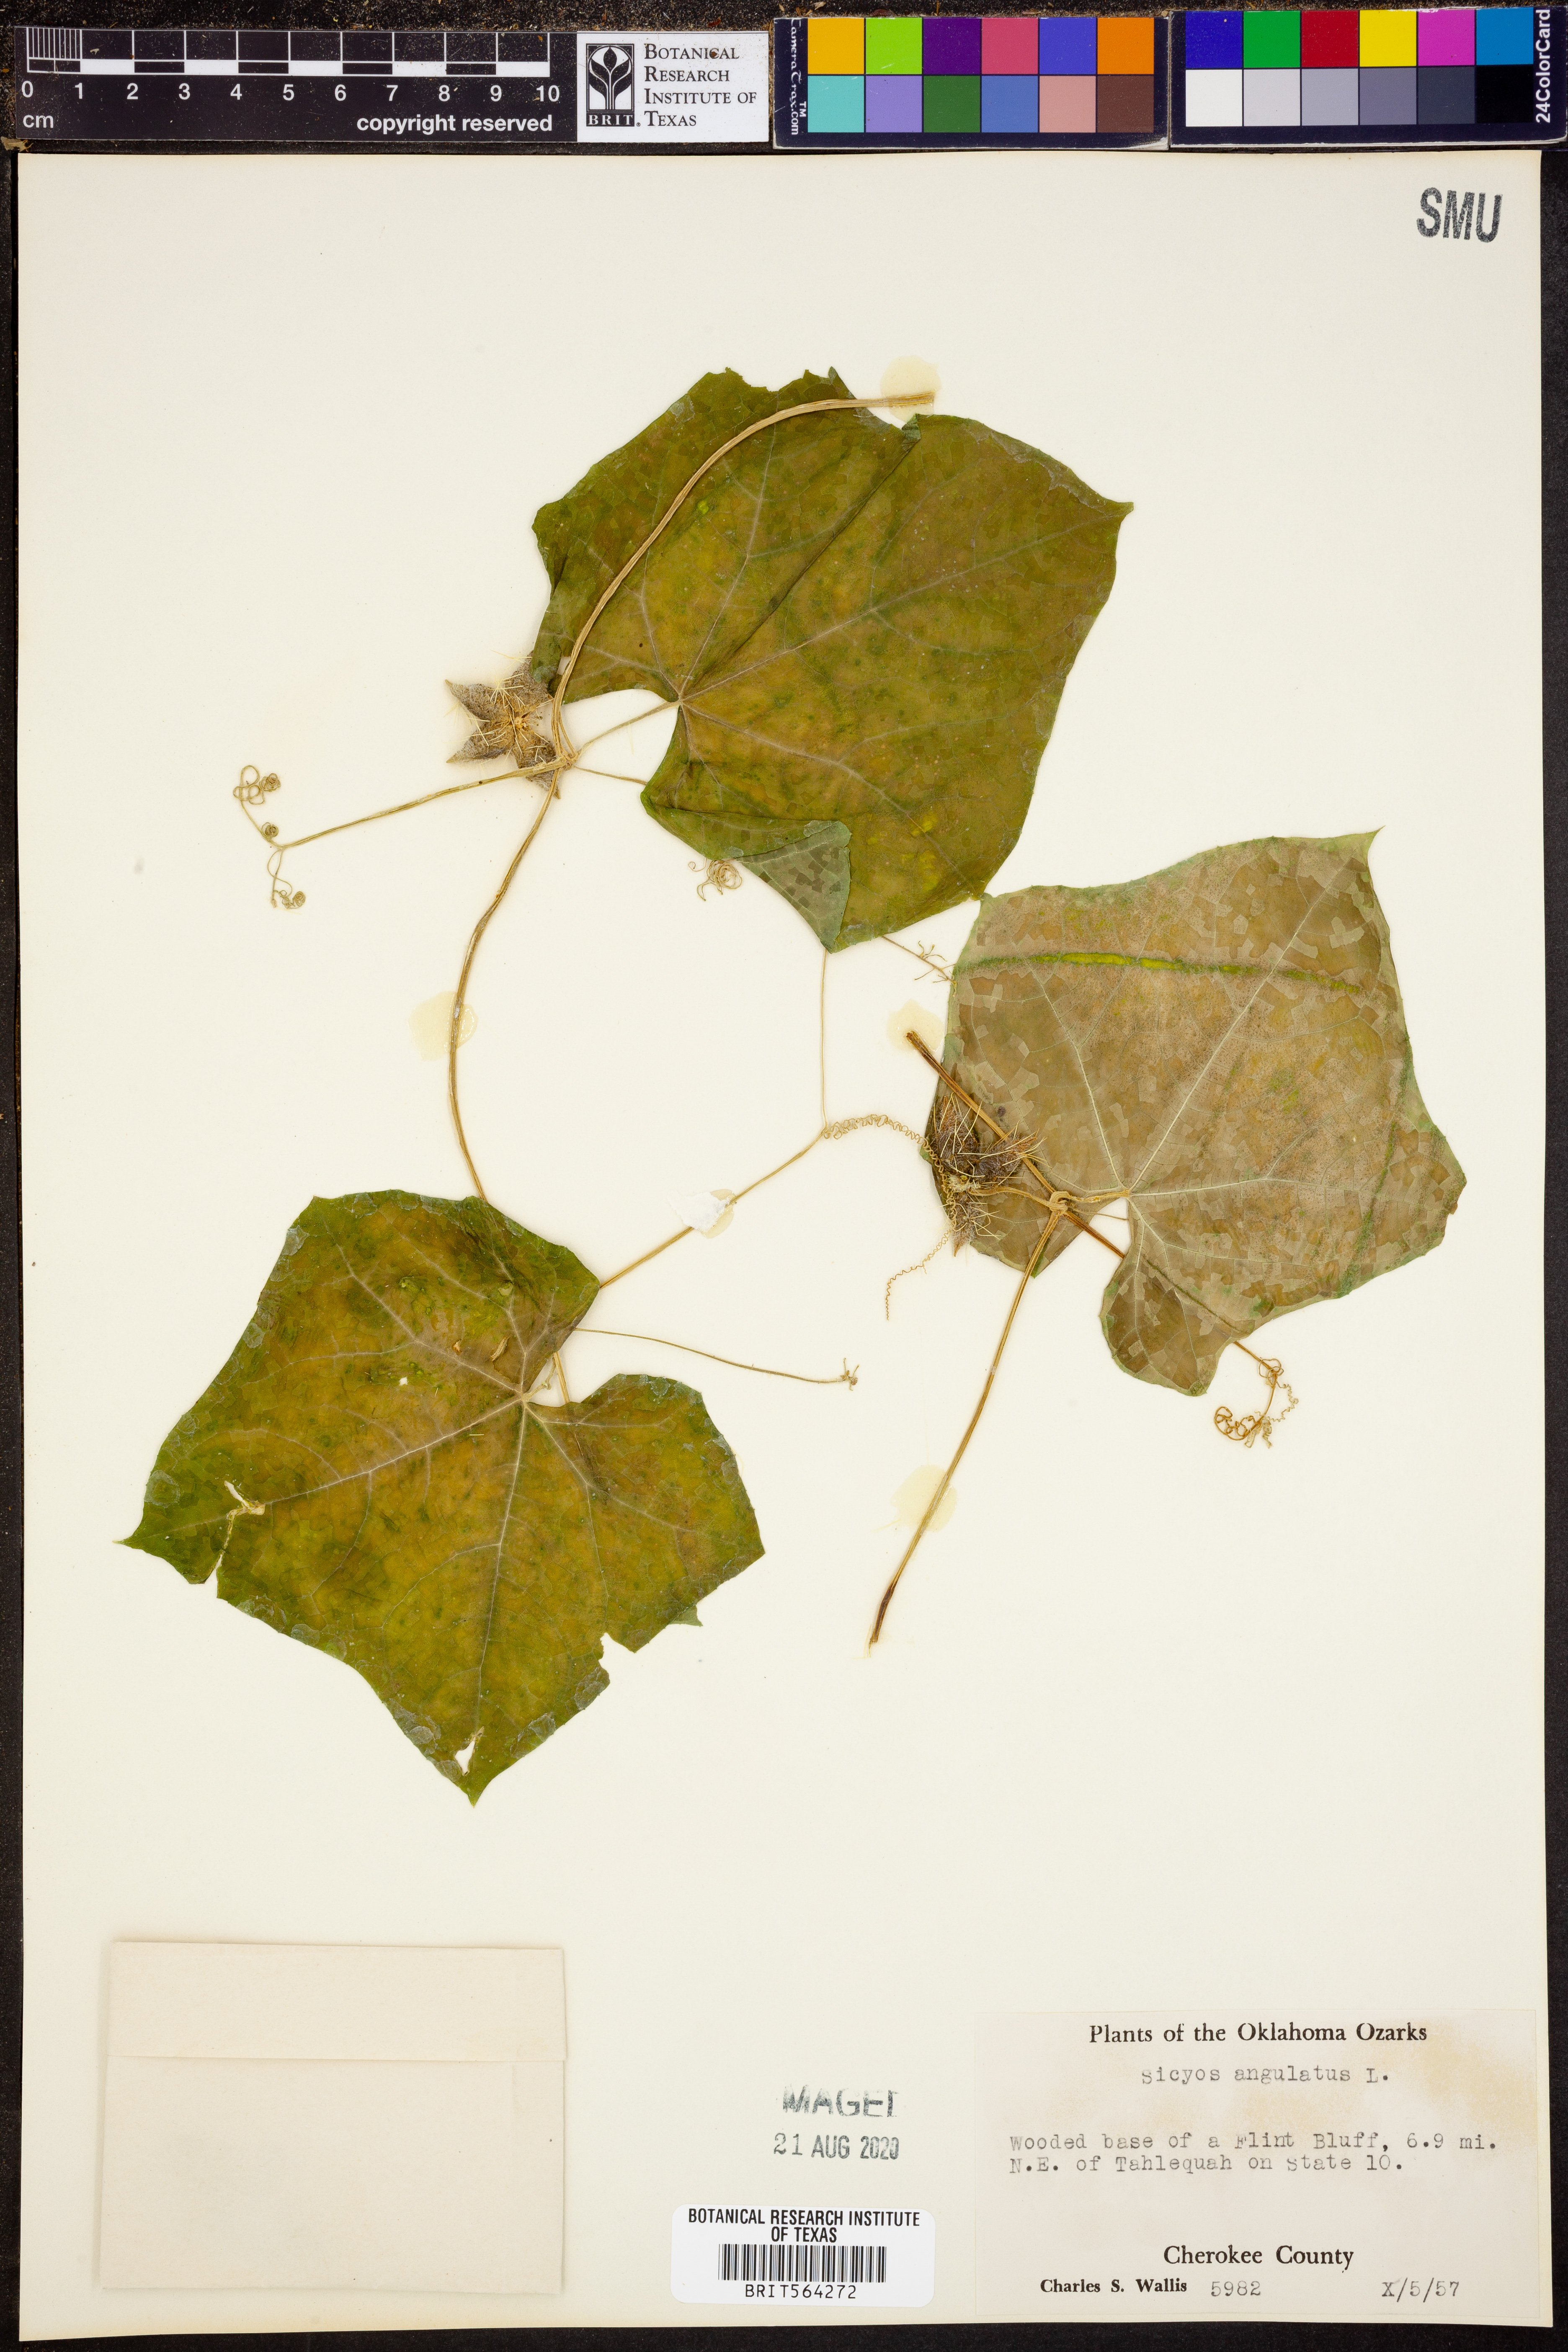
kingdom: Plantae
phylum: Tracheophyta
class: Magnoliopsida
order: Cucurbitales
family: Cucurbitaceae
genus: Sicyos
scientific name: Sicyos angulatus
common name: Angled burr cucumber
